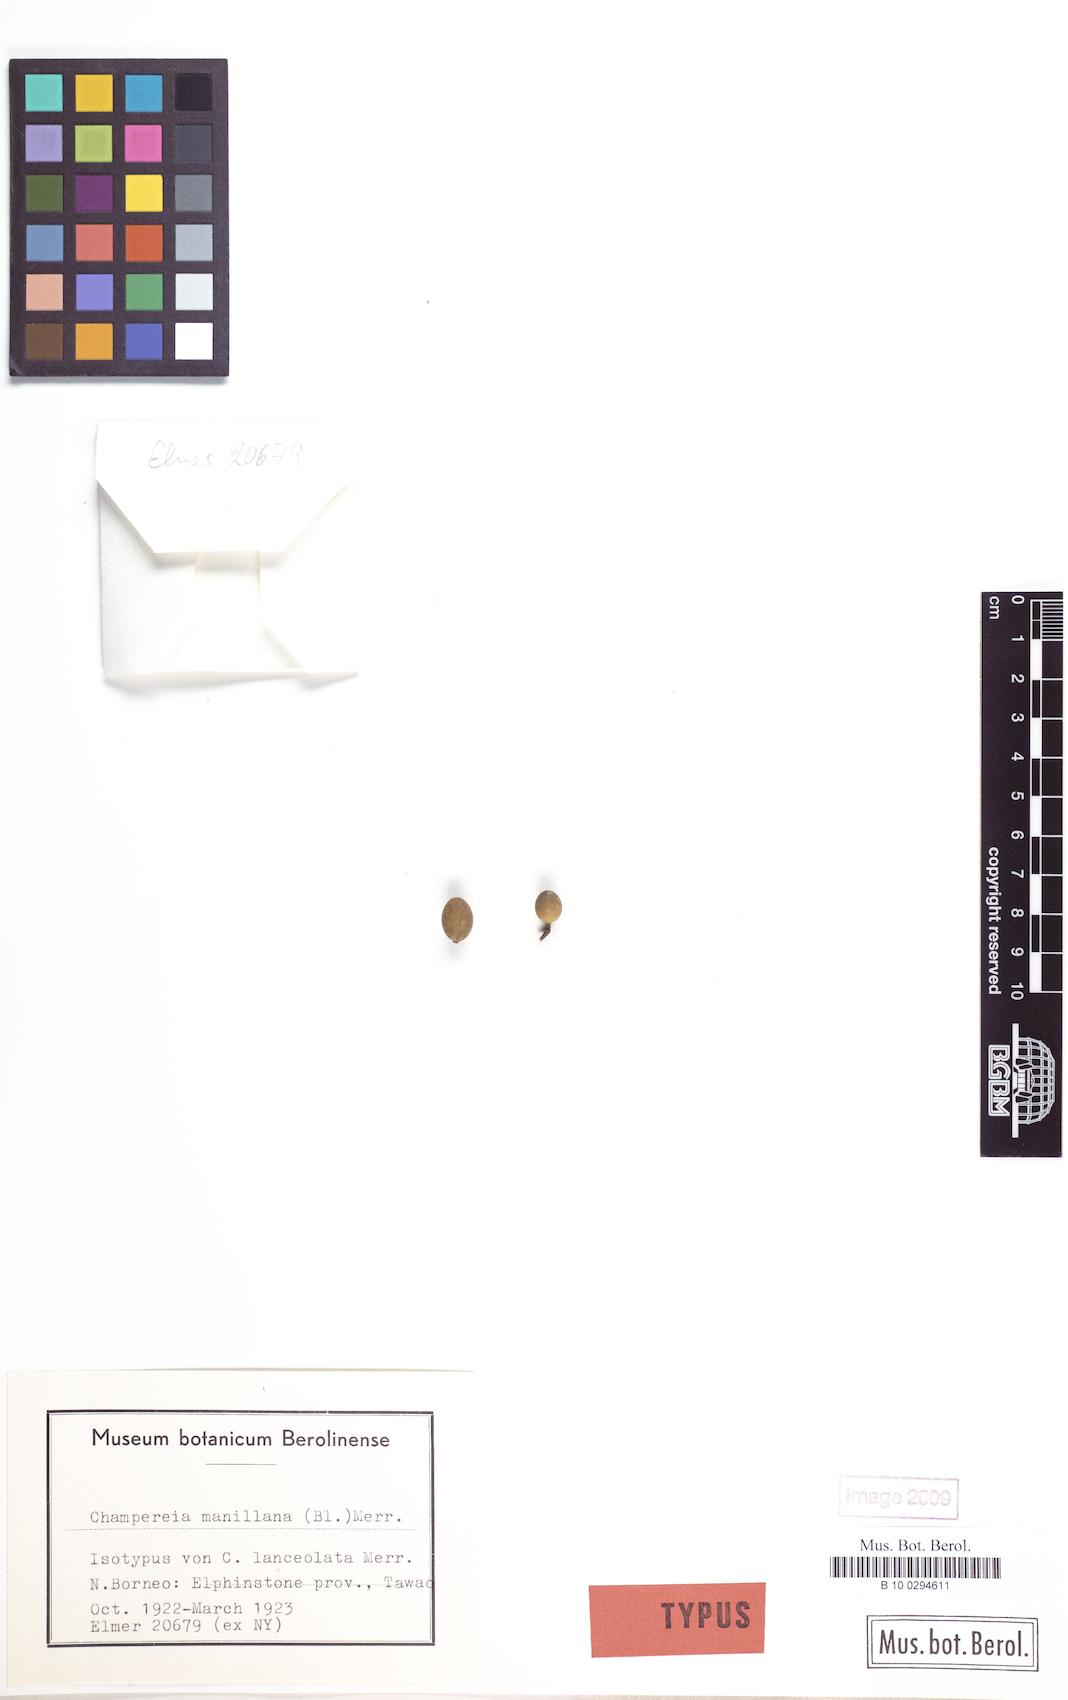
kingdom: Plantae
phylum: Tracheophyta
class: Magnoliopsida
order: Santalales
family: Opiliaceae
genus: Champereia
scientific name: Champereia manillana
